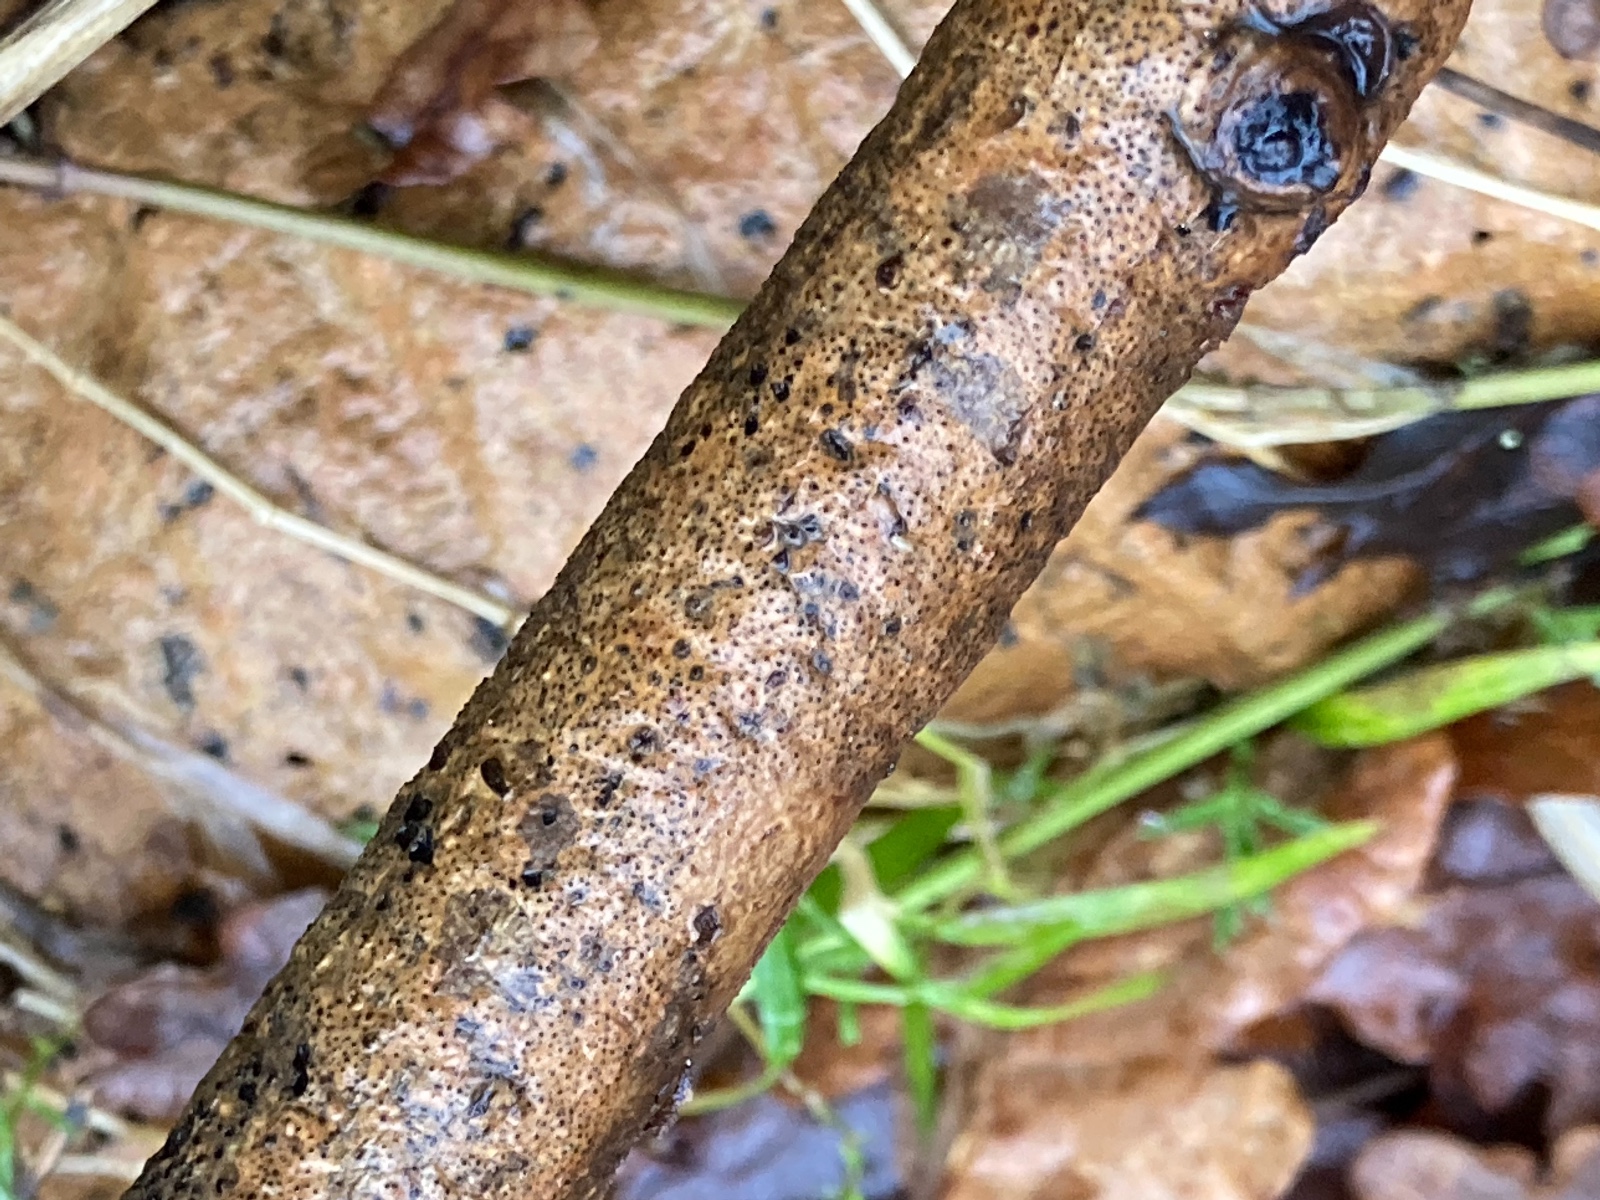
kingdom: Fungi
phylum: Ascomycota
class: Sordariomycetes
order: Xylariales
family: Diatrypaceae
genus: Cryptosphaeria
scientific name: Cryptosphaeria eunomia
